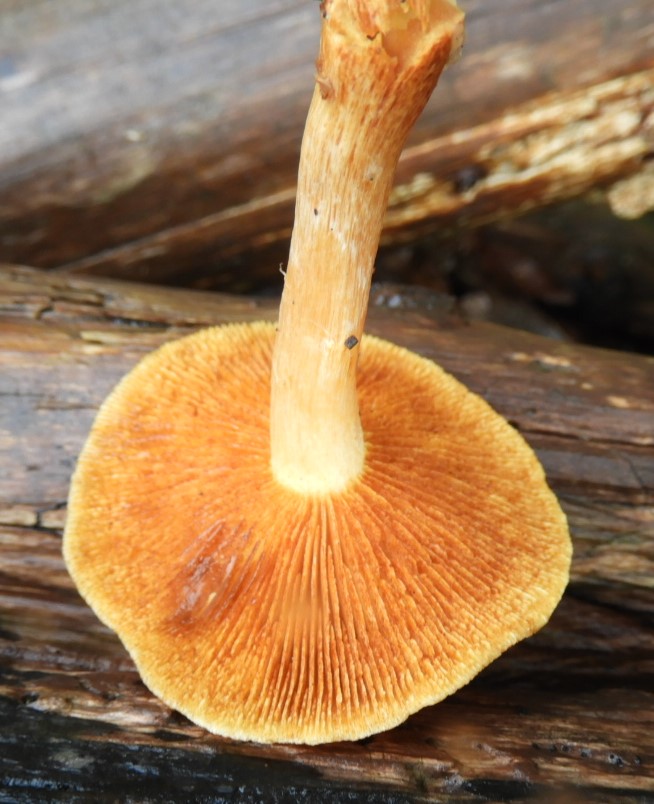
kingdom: Fungi
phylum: Basidiomycota
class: Agaricomycetes
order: Agaricales
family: Hymenogastraceae
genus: Gymnopilus
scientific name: Gymnopilus penetrans
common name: plettet flammehat
